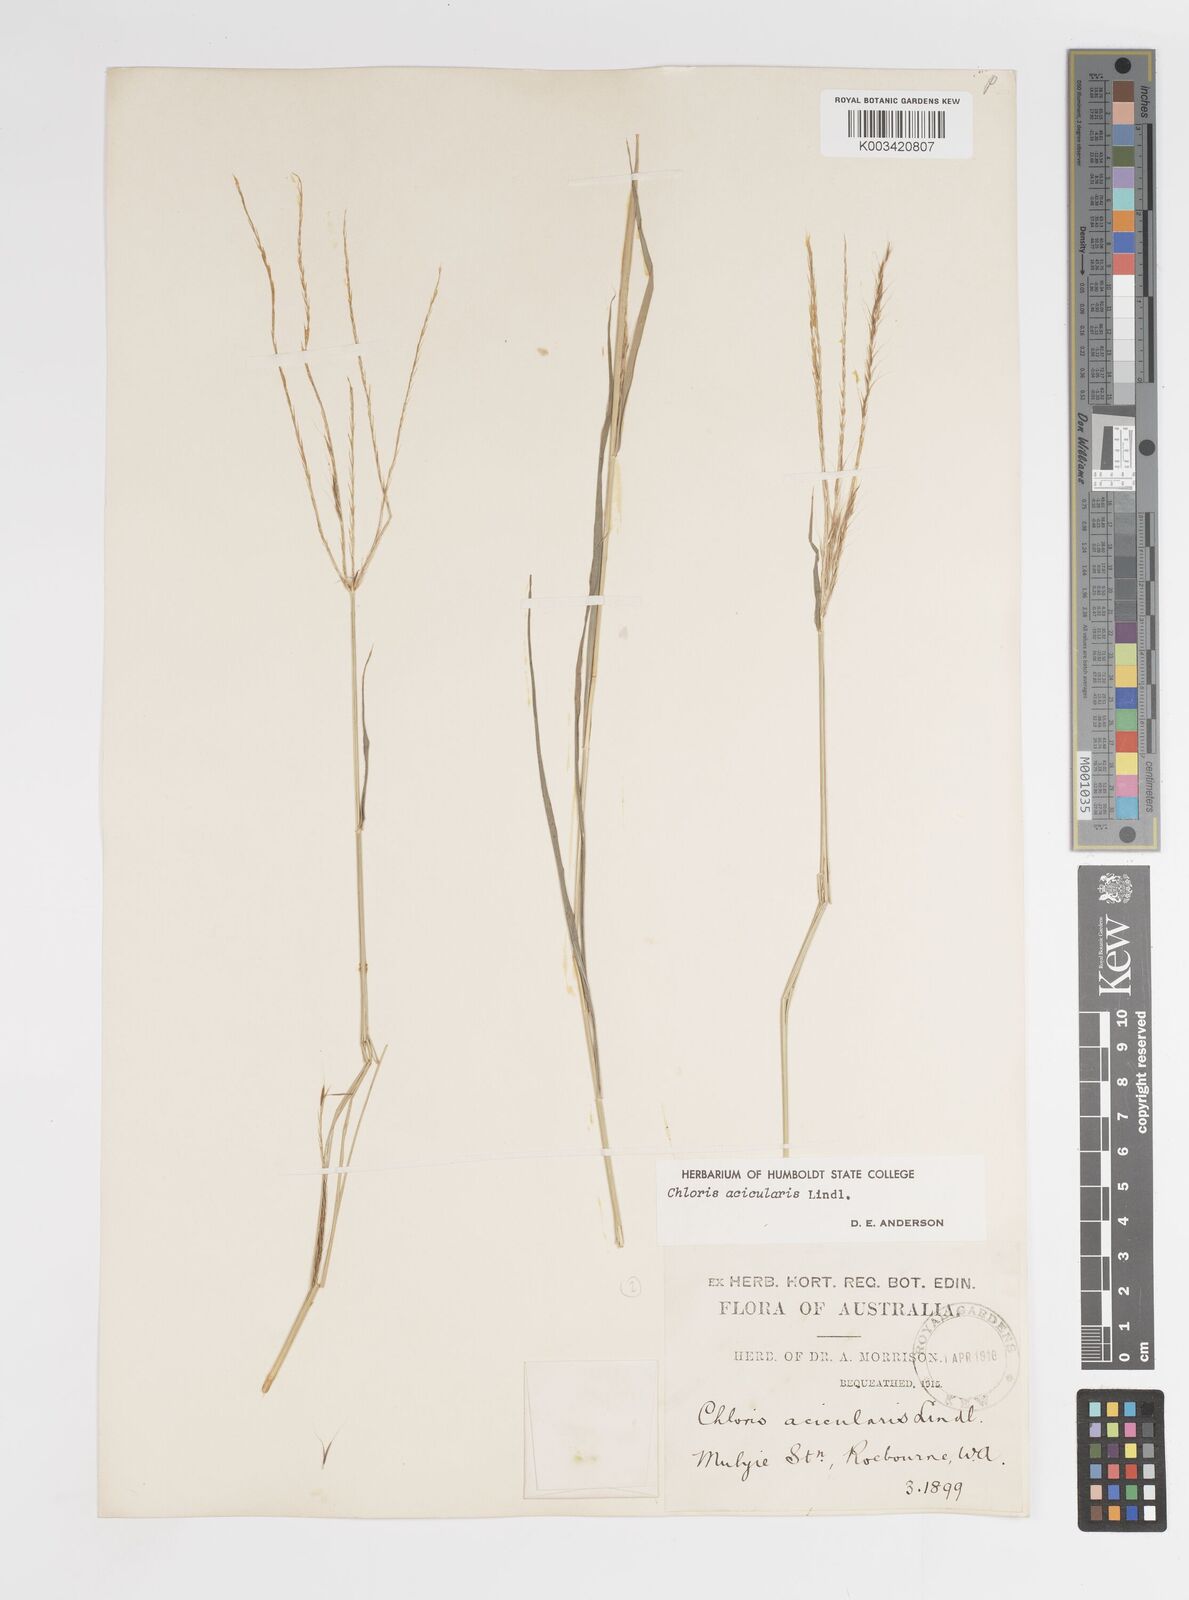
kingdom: Plantae
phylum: Tracheophyta
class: Liliopsida
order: Poales
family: Poaceae
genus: Enteropogon
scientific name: Enteropogon acicularis
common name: Curly windmill grass
